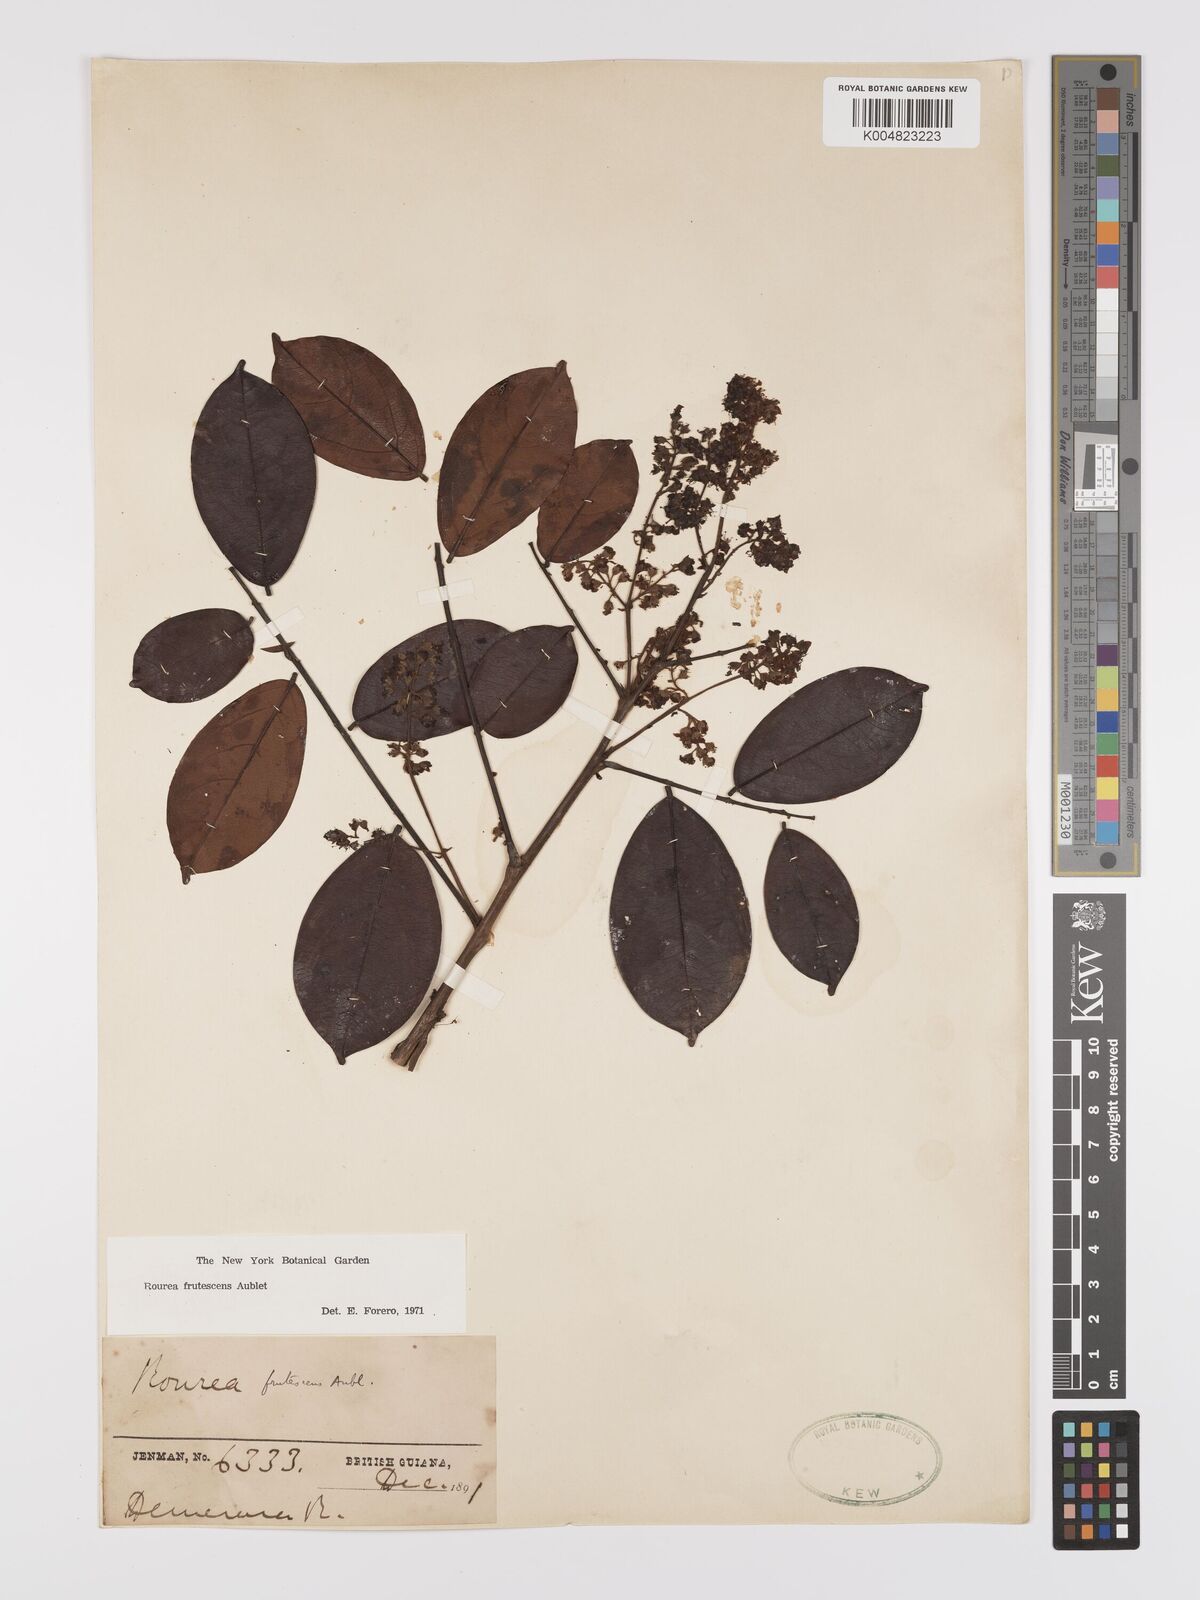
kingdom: Plantae
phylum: Tracheophyta
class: Magnoliopsida
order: Oxalidales
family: Connaraceae
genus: Rourea
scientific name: Rourea frutescens
